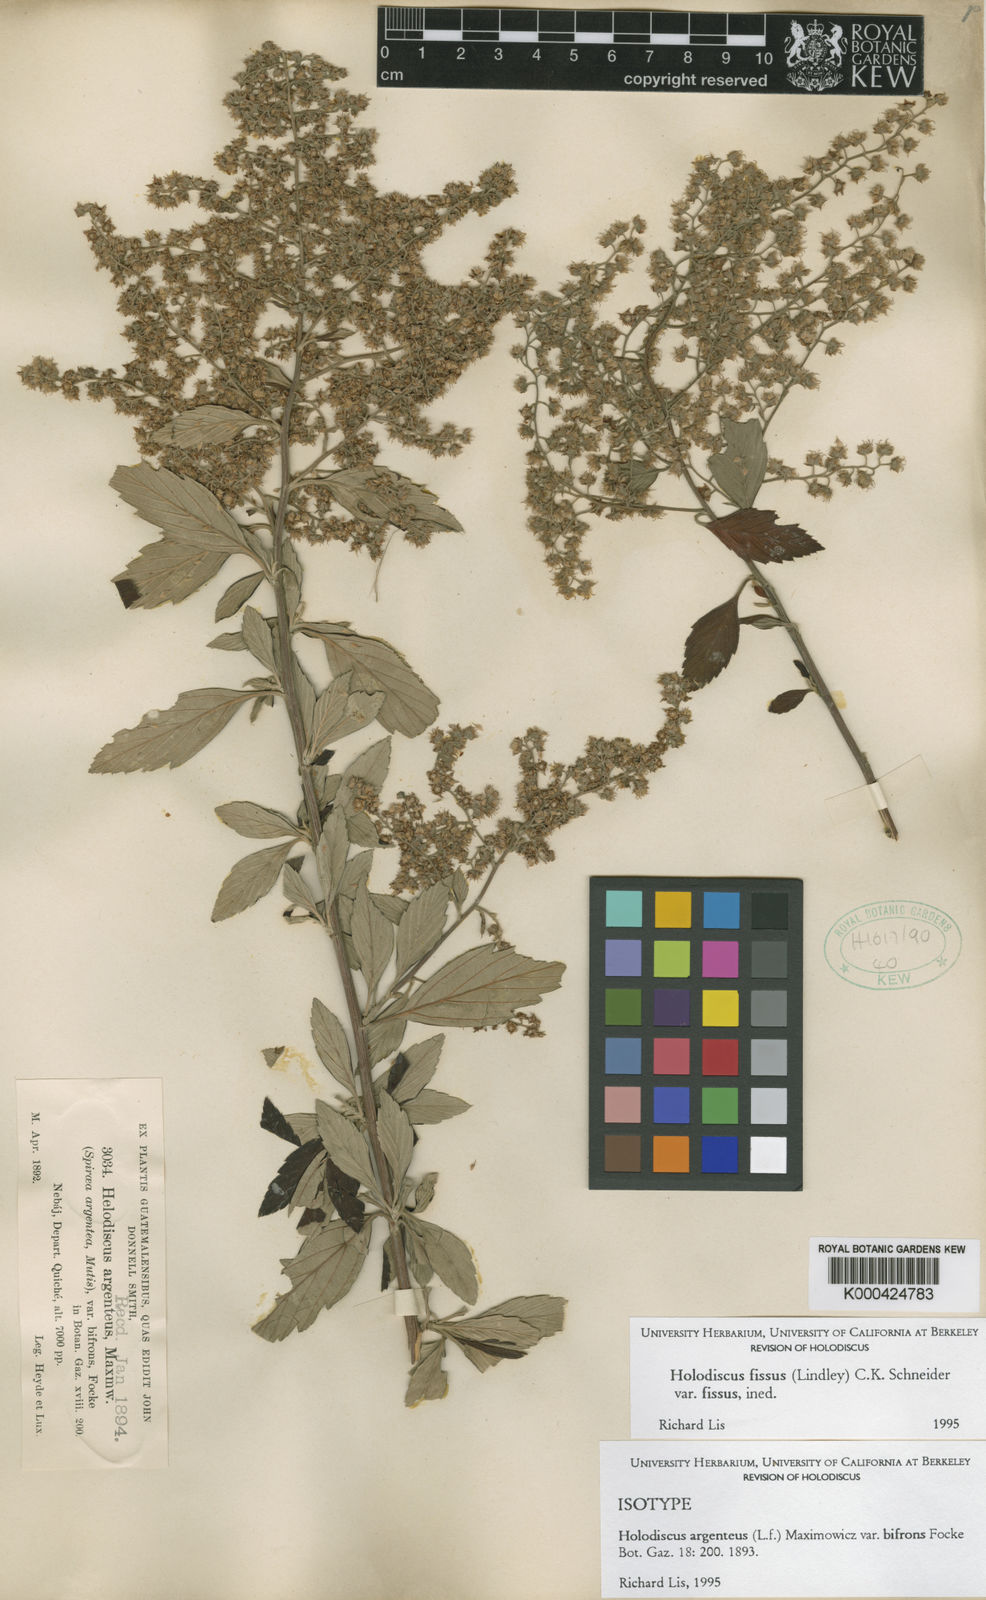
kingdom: Plantae
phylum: Tracheophyta
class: Magnoliopsida
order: Rosales
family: Rosaceae
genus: Holodiscus
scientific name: Holodiscus argenteus
